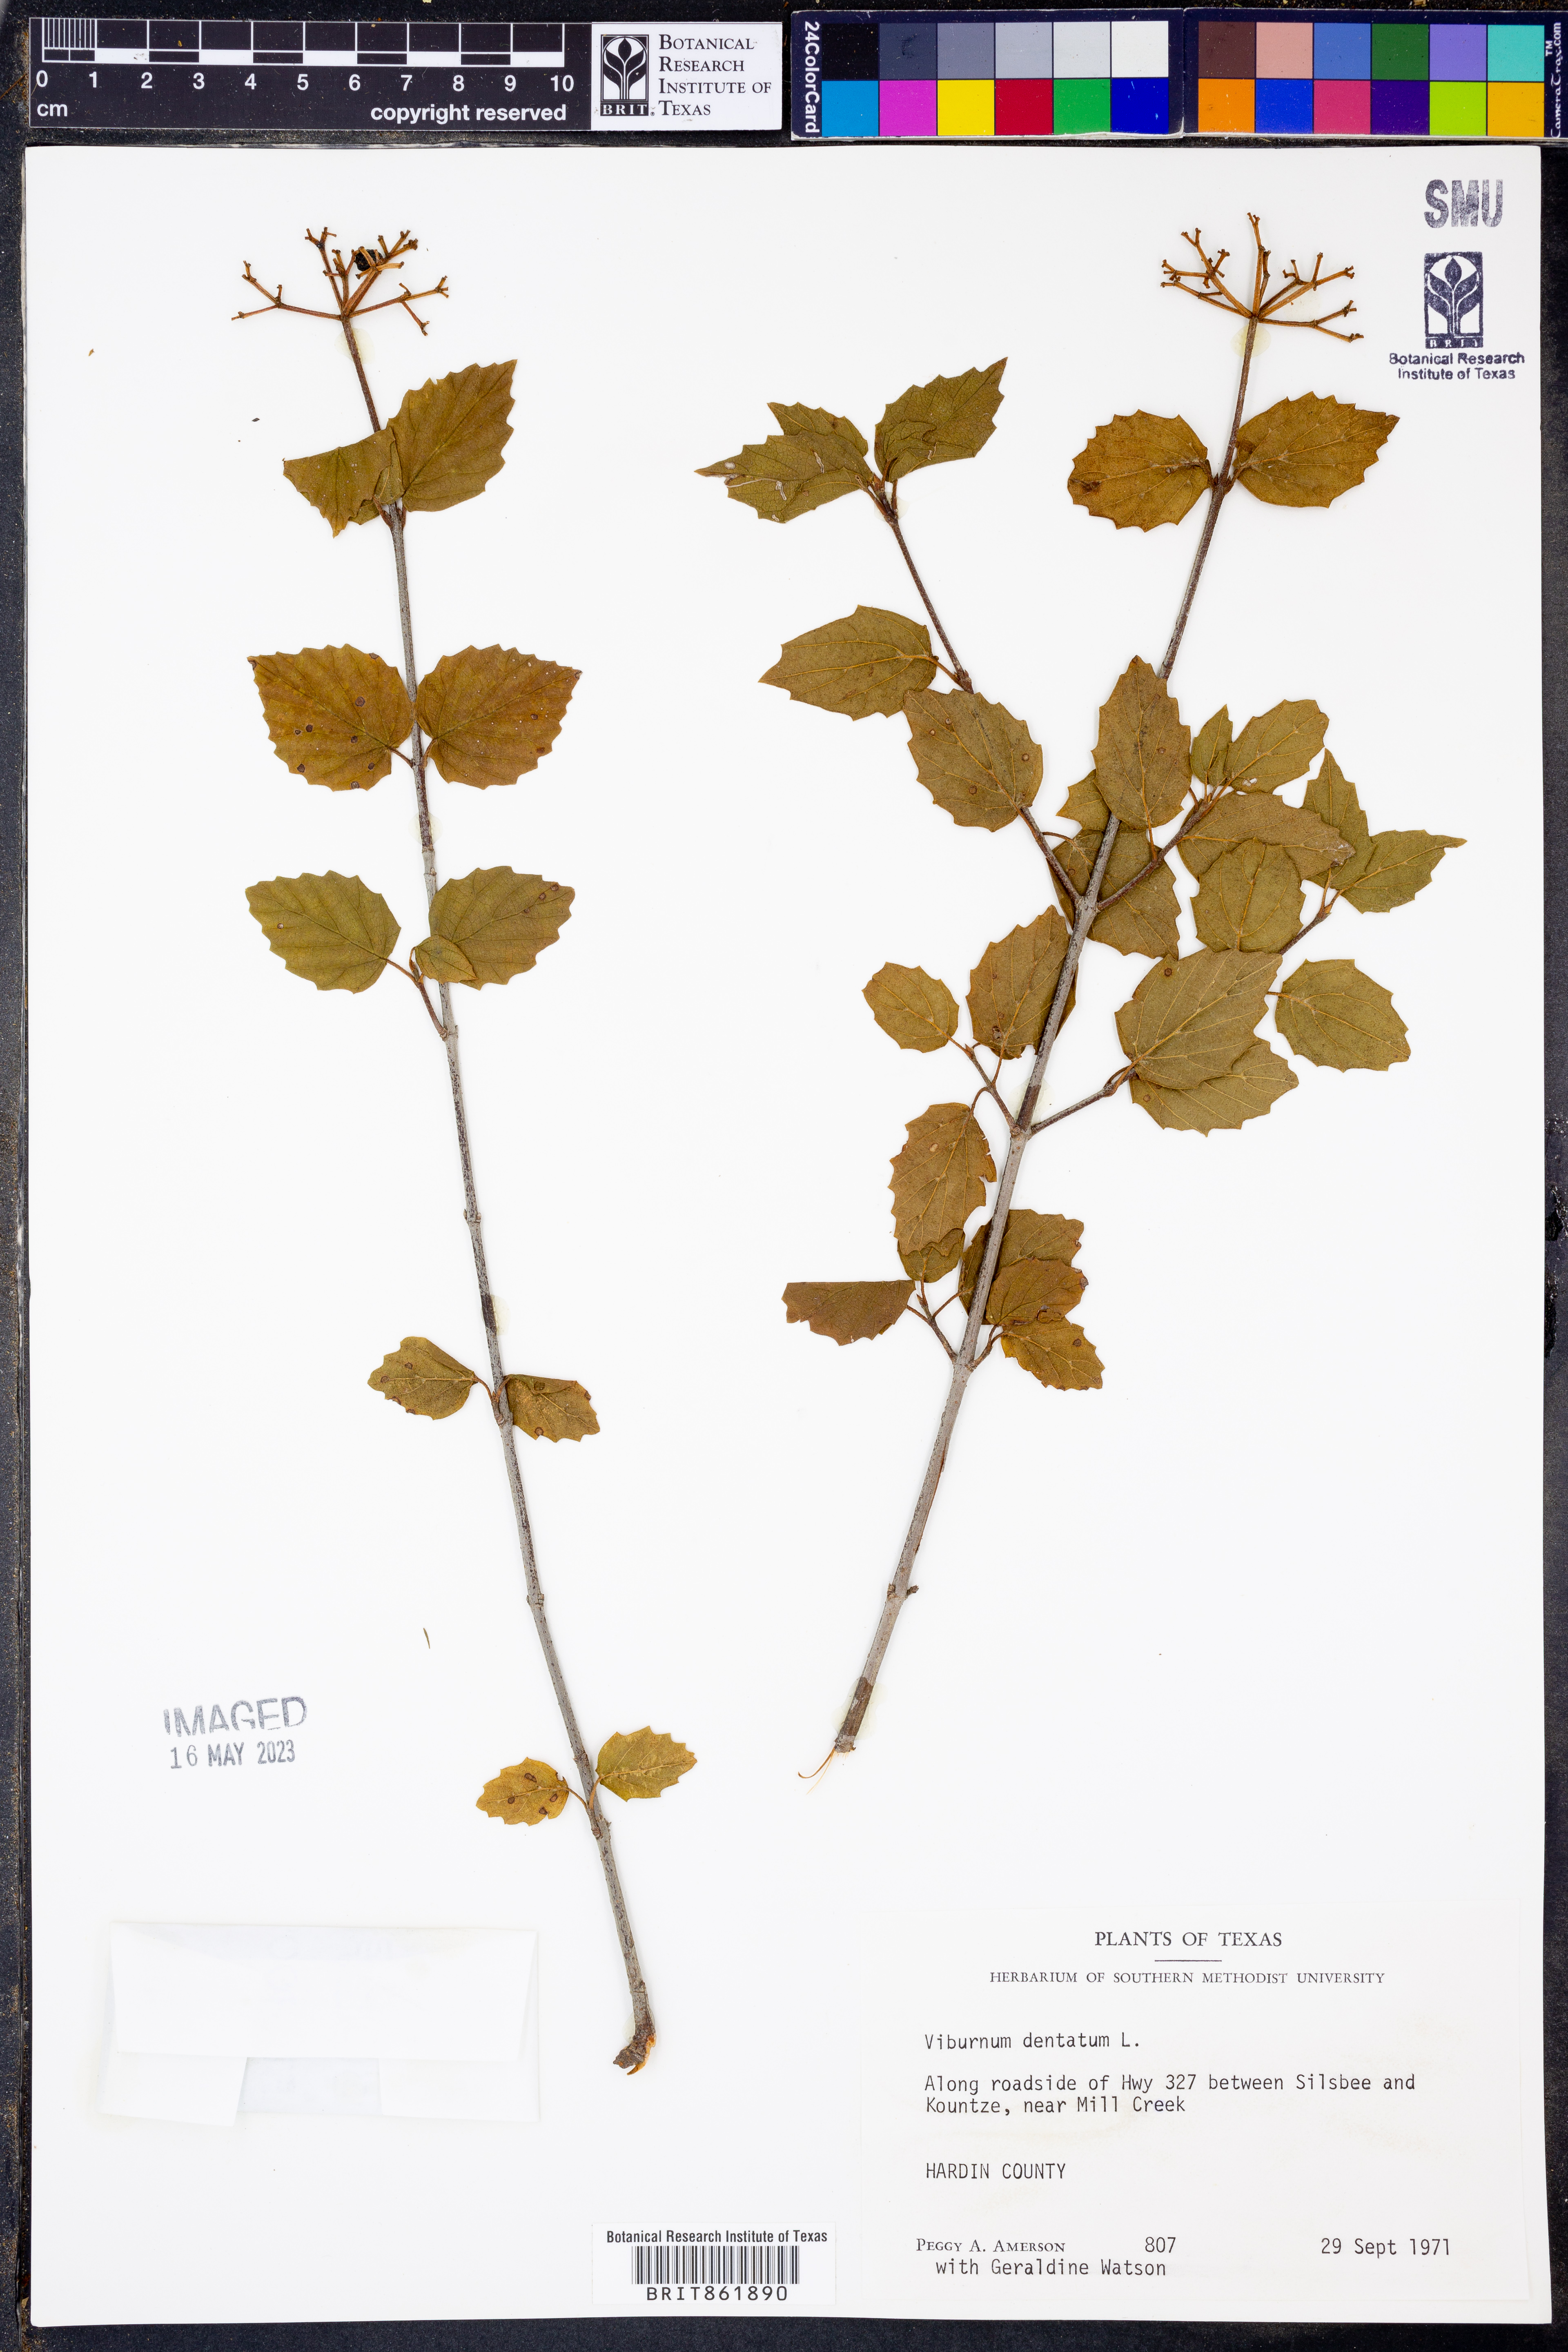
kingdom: Plantae
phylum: Tracheophyta
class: Magnoliopsida
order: Dipsacales
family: Viburnaceae
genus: Viburnum
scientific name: Viburnum dentatum
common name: Arrow-wood
